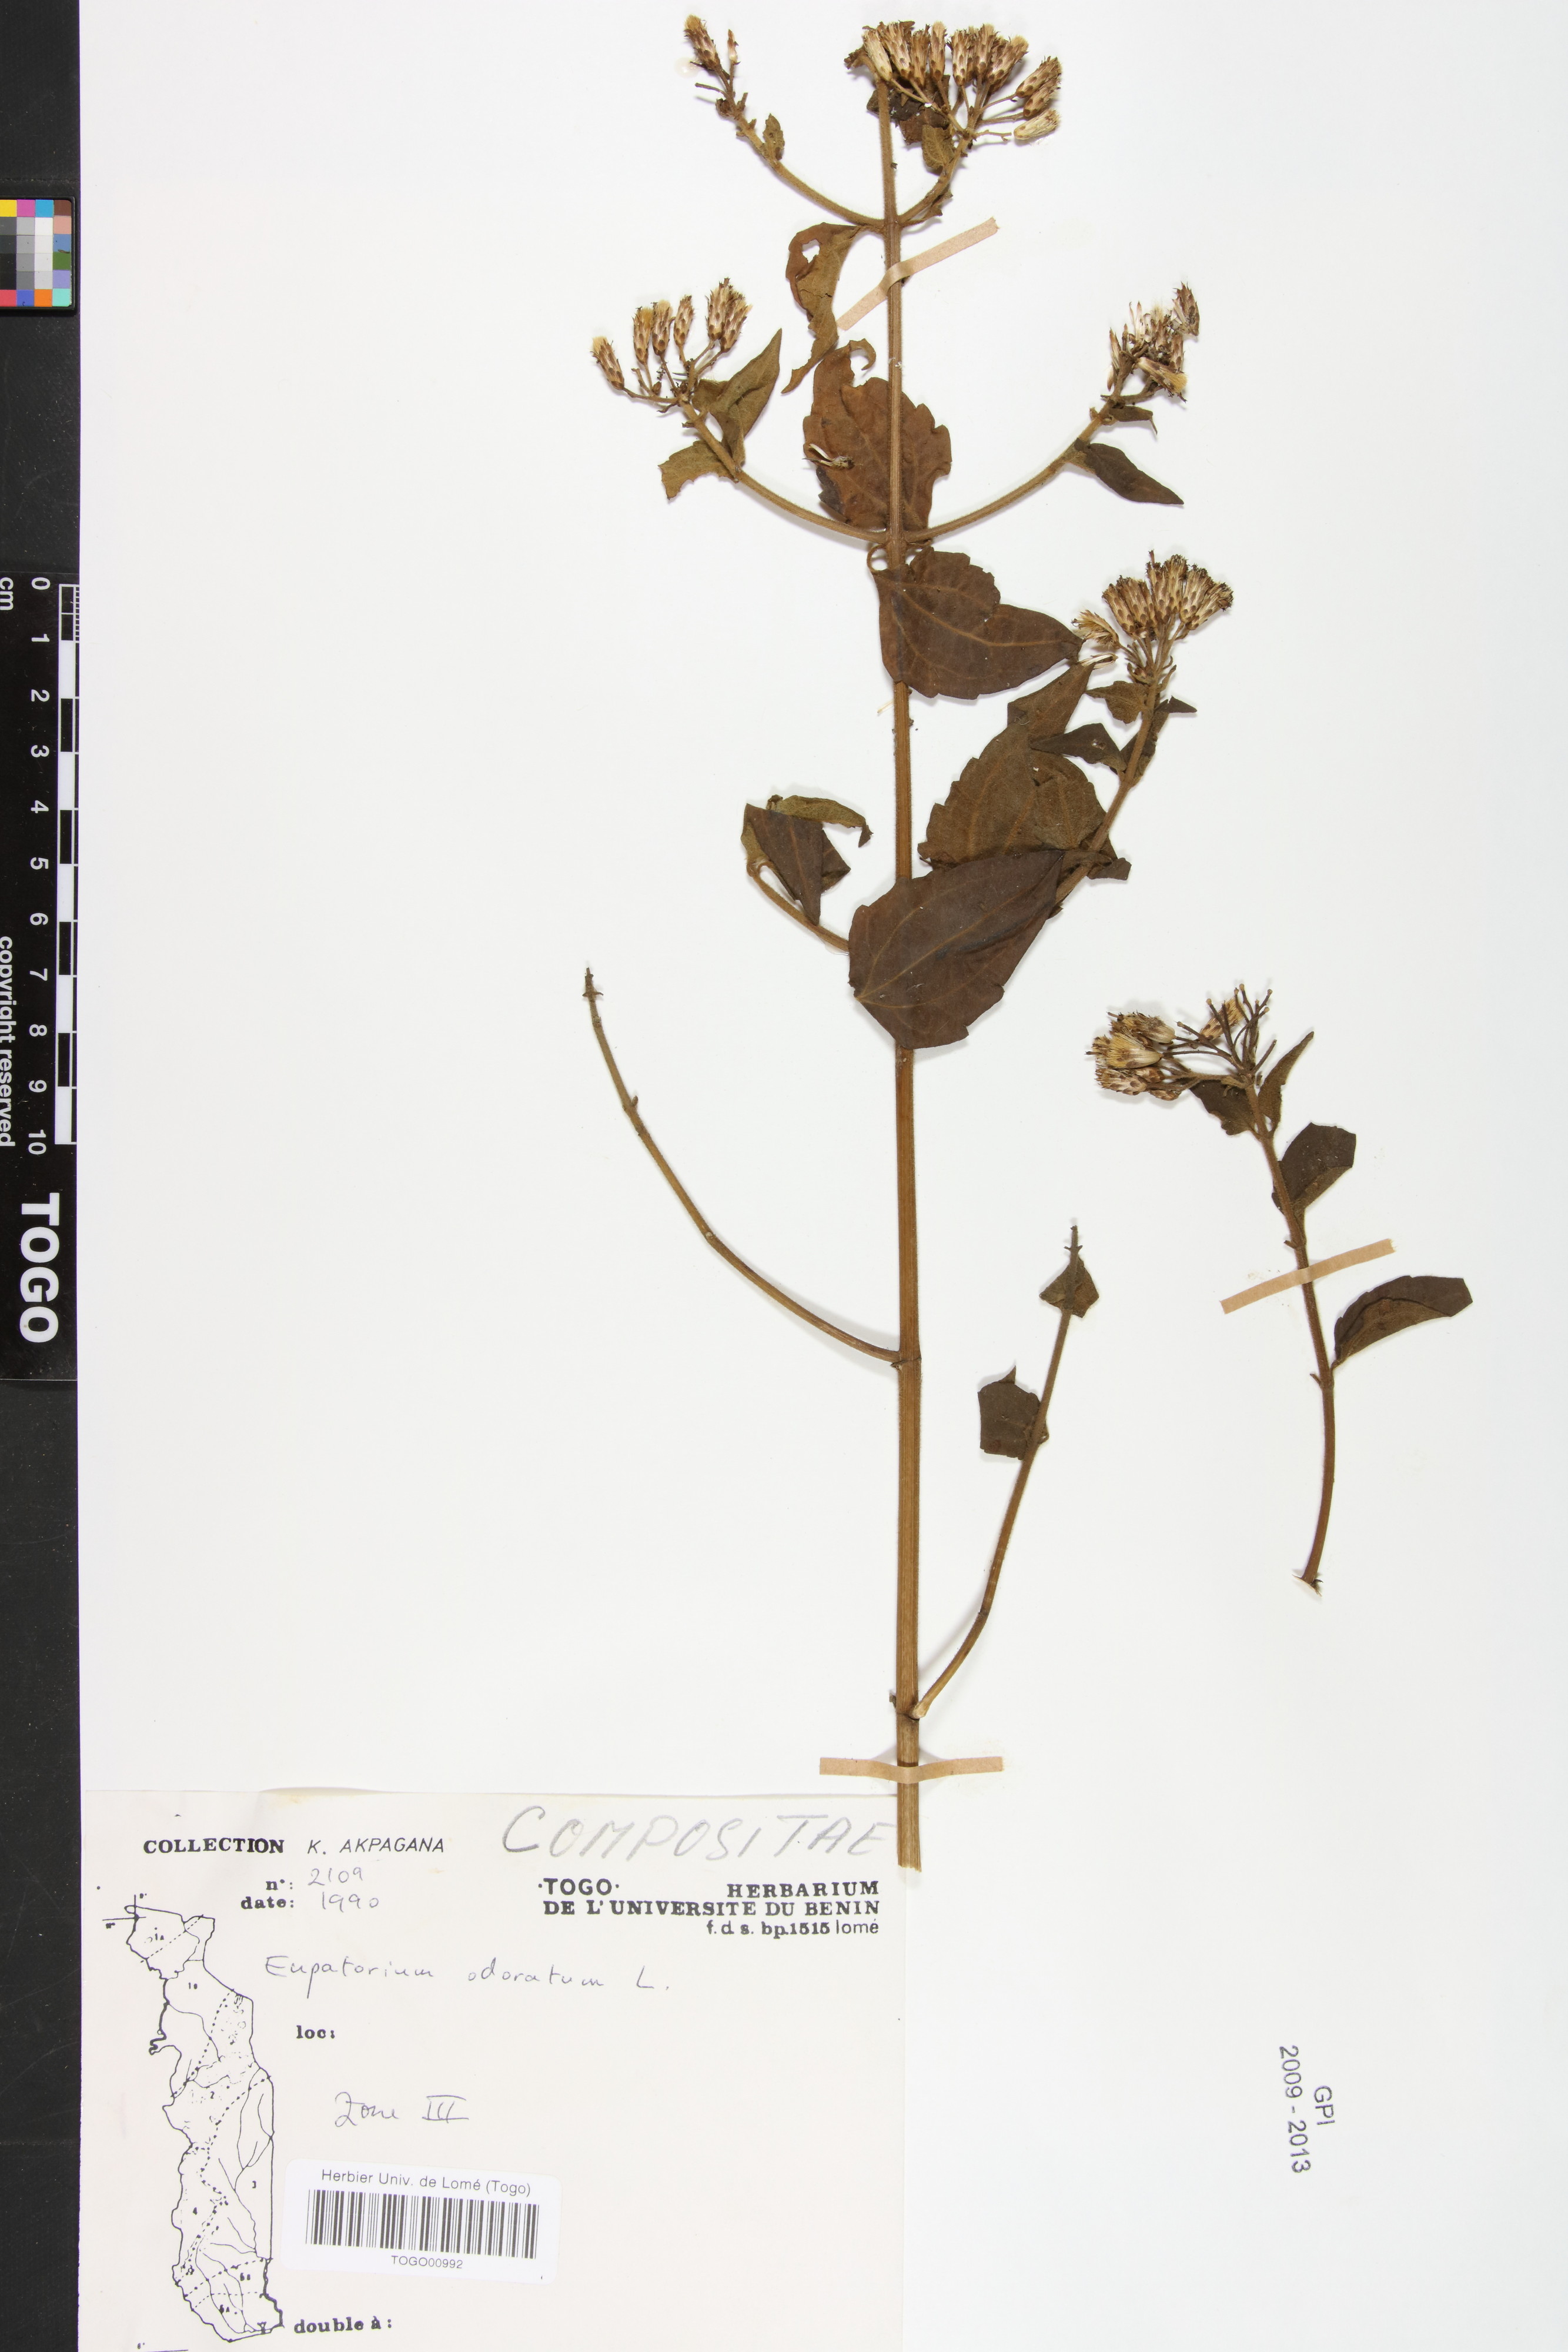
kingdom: Plantae
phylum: Tracheophyta
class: Magnoliopsida
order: Asterales
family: Asteraceae
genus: Chromolaena
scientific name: Chromolaena odorata
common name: Siamweed
